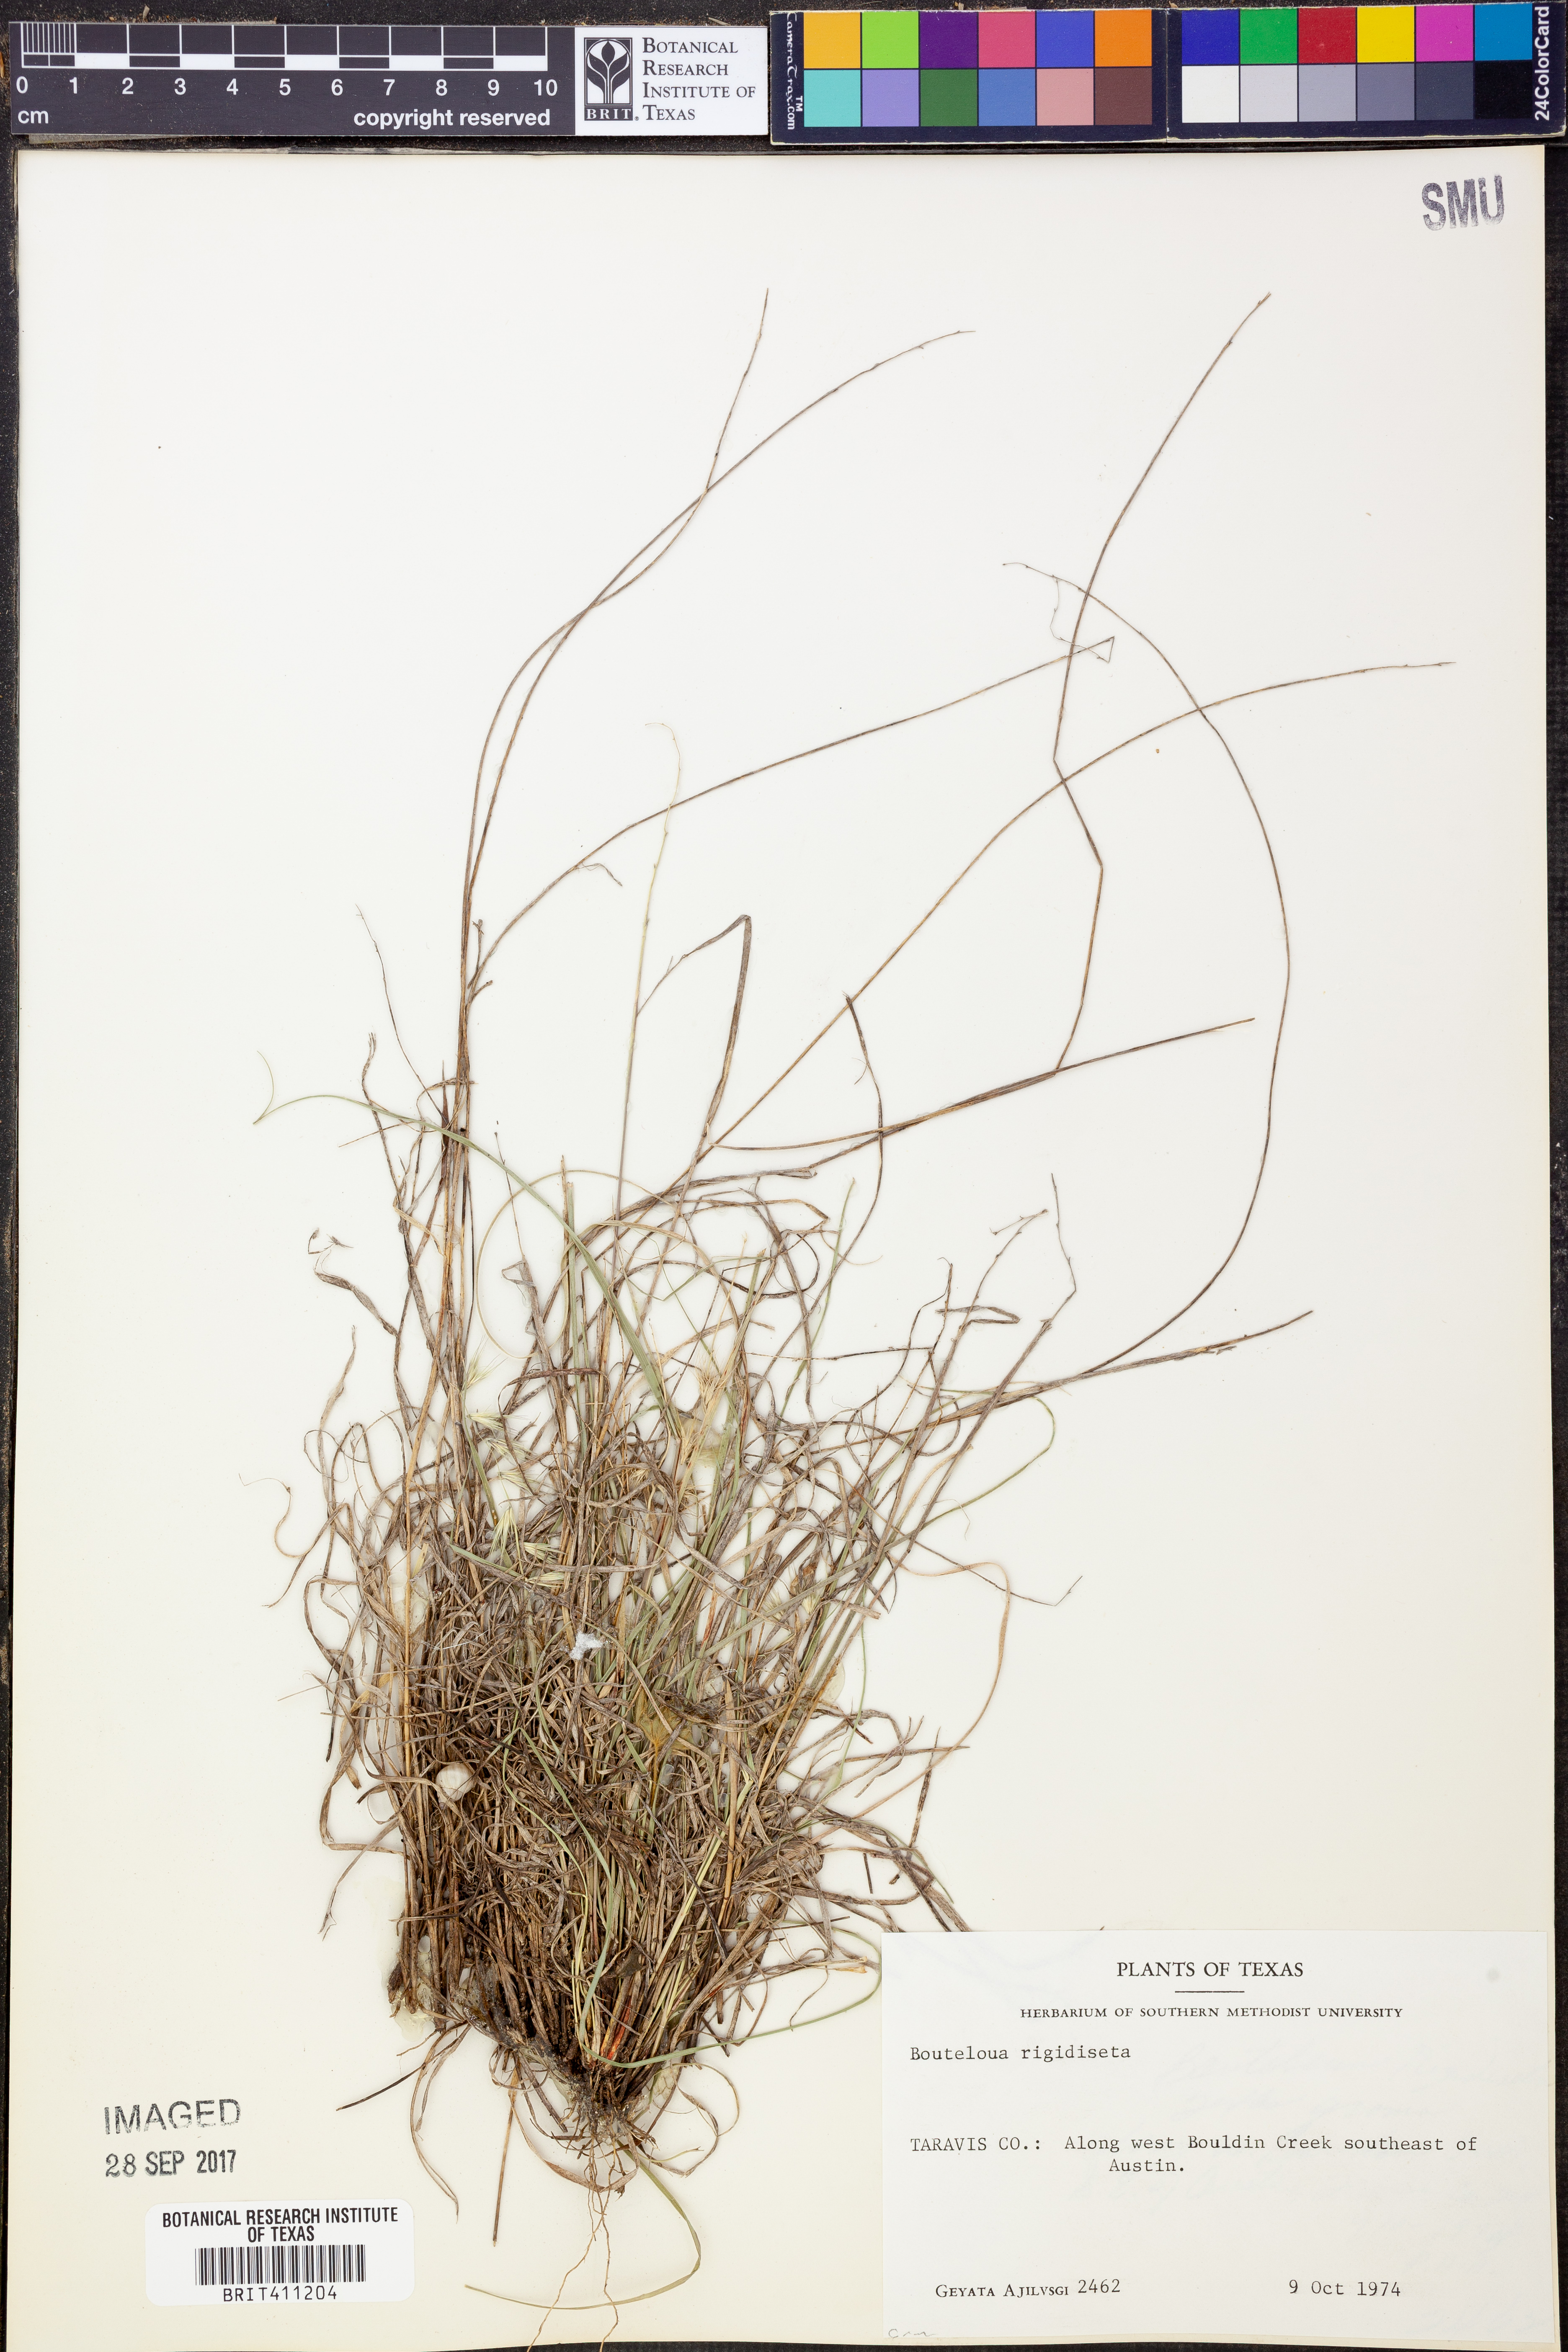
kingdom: Plantae
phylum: Tracheophyta
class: Liliopsida
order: Poales
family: Poaceae
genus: Bouteloua
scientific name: Bouteloua rigidiseta
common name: Texas grama
